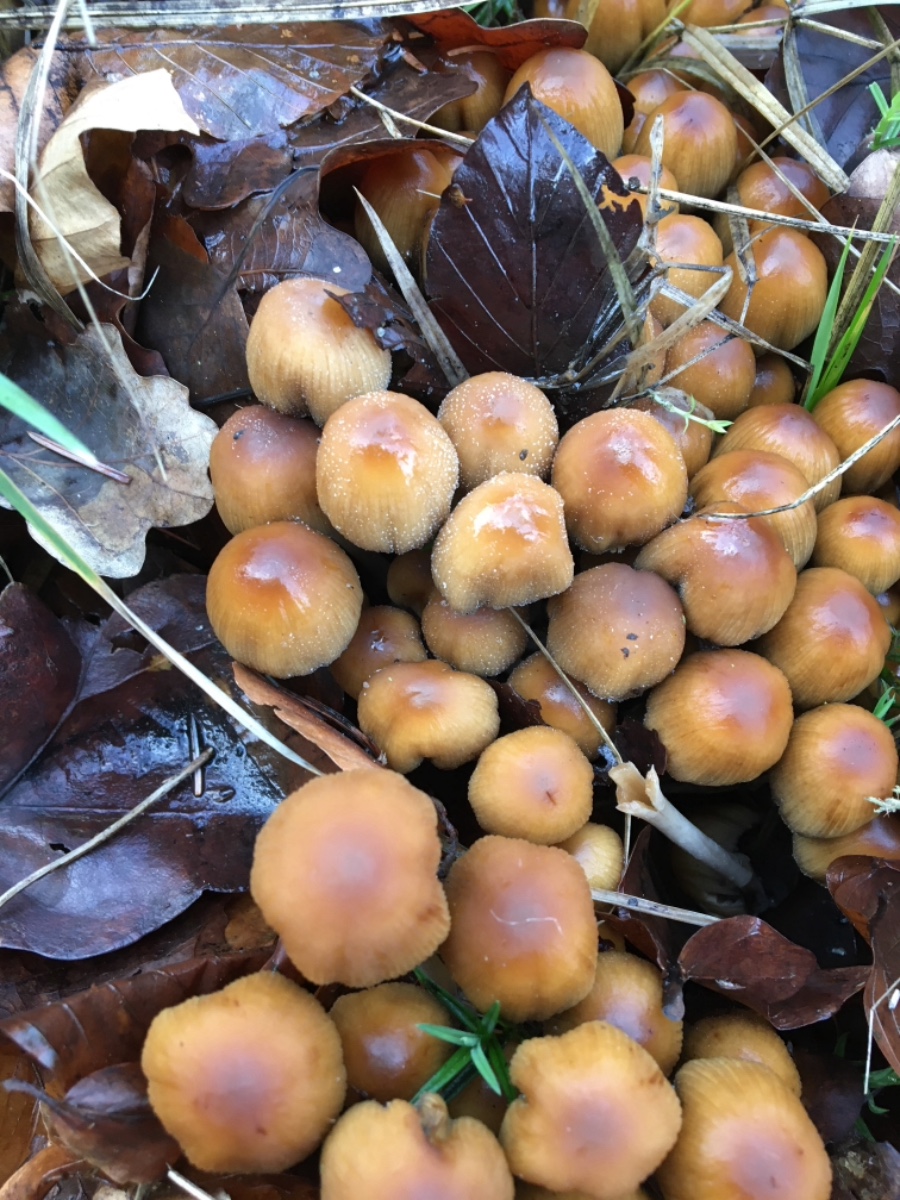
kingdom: Fungi
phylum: Basidiomycota
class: Agaricomycetes
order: Agaricales
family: Psathyrellaceae
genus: Coprinellus
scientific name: Coprinellus micaceus
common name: glimmer-blækhat
